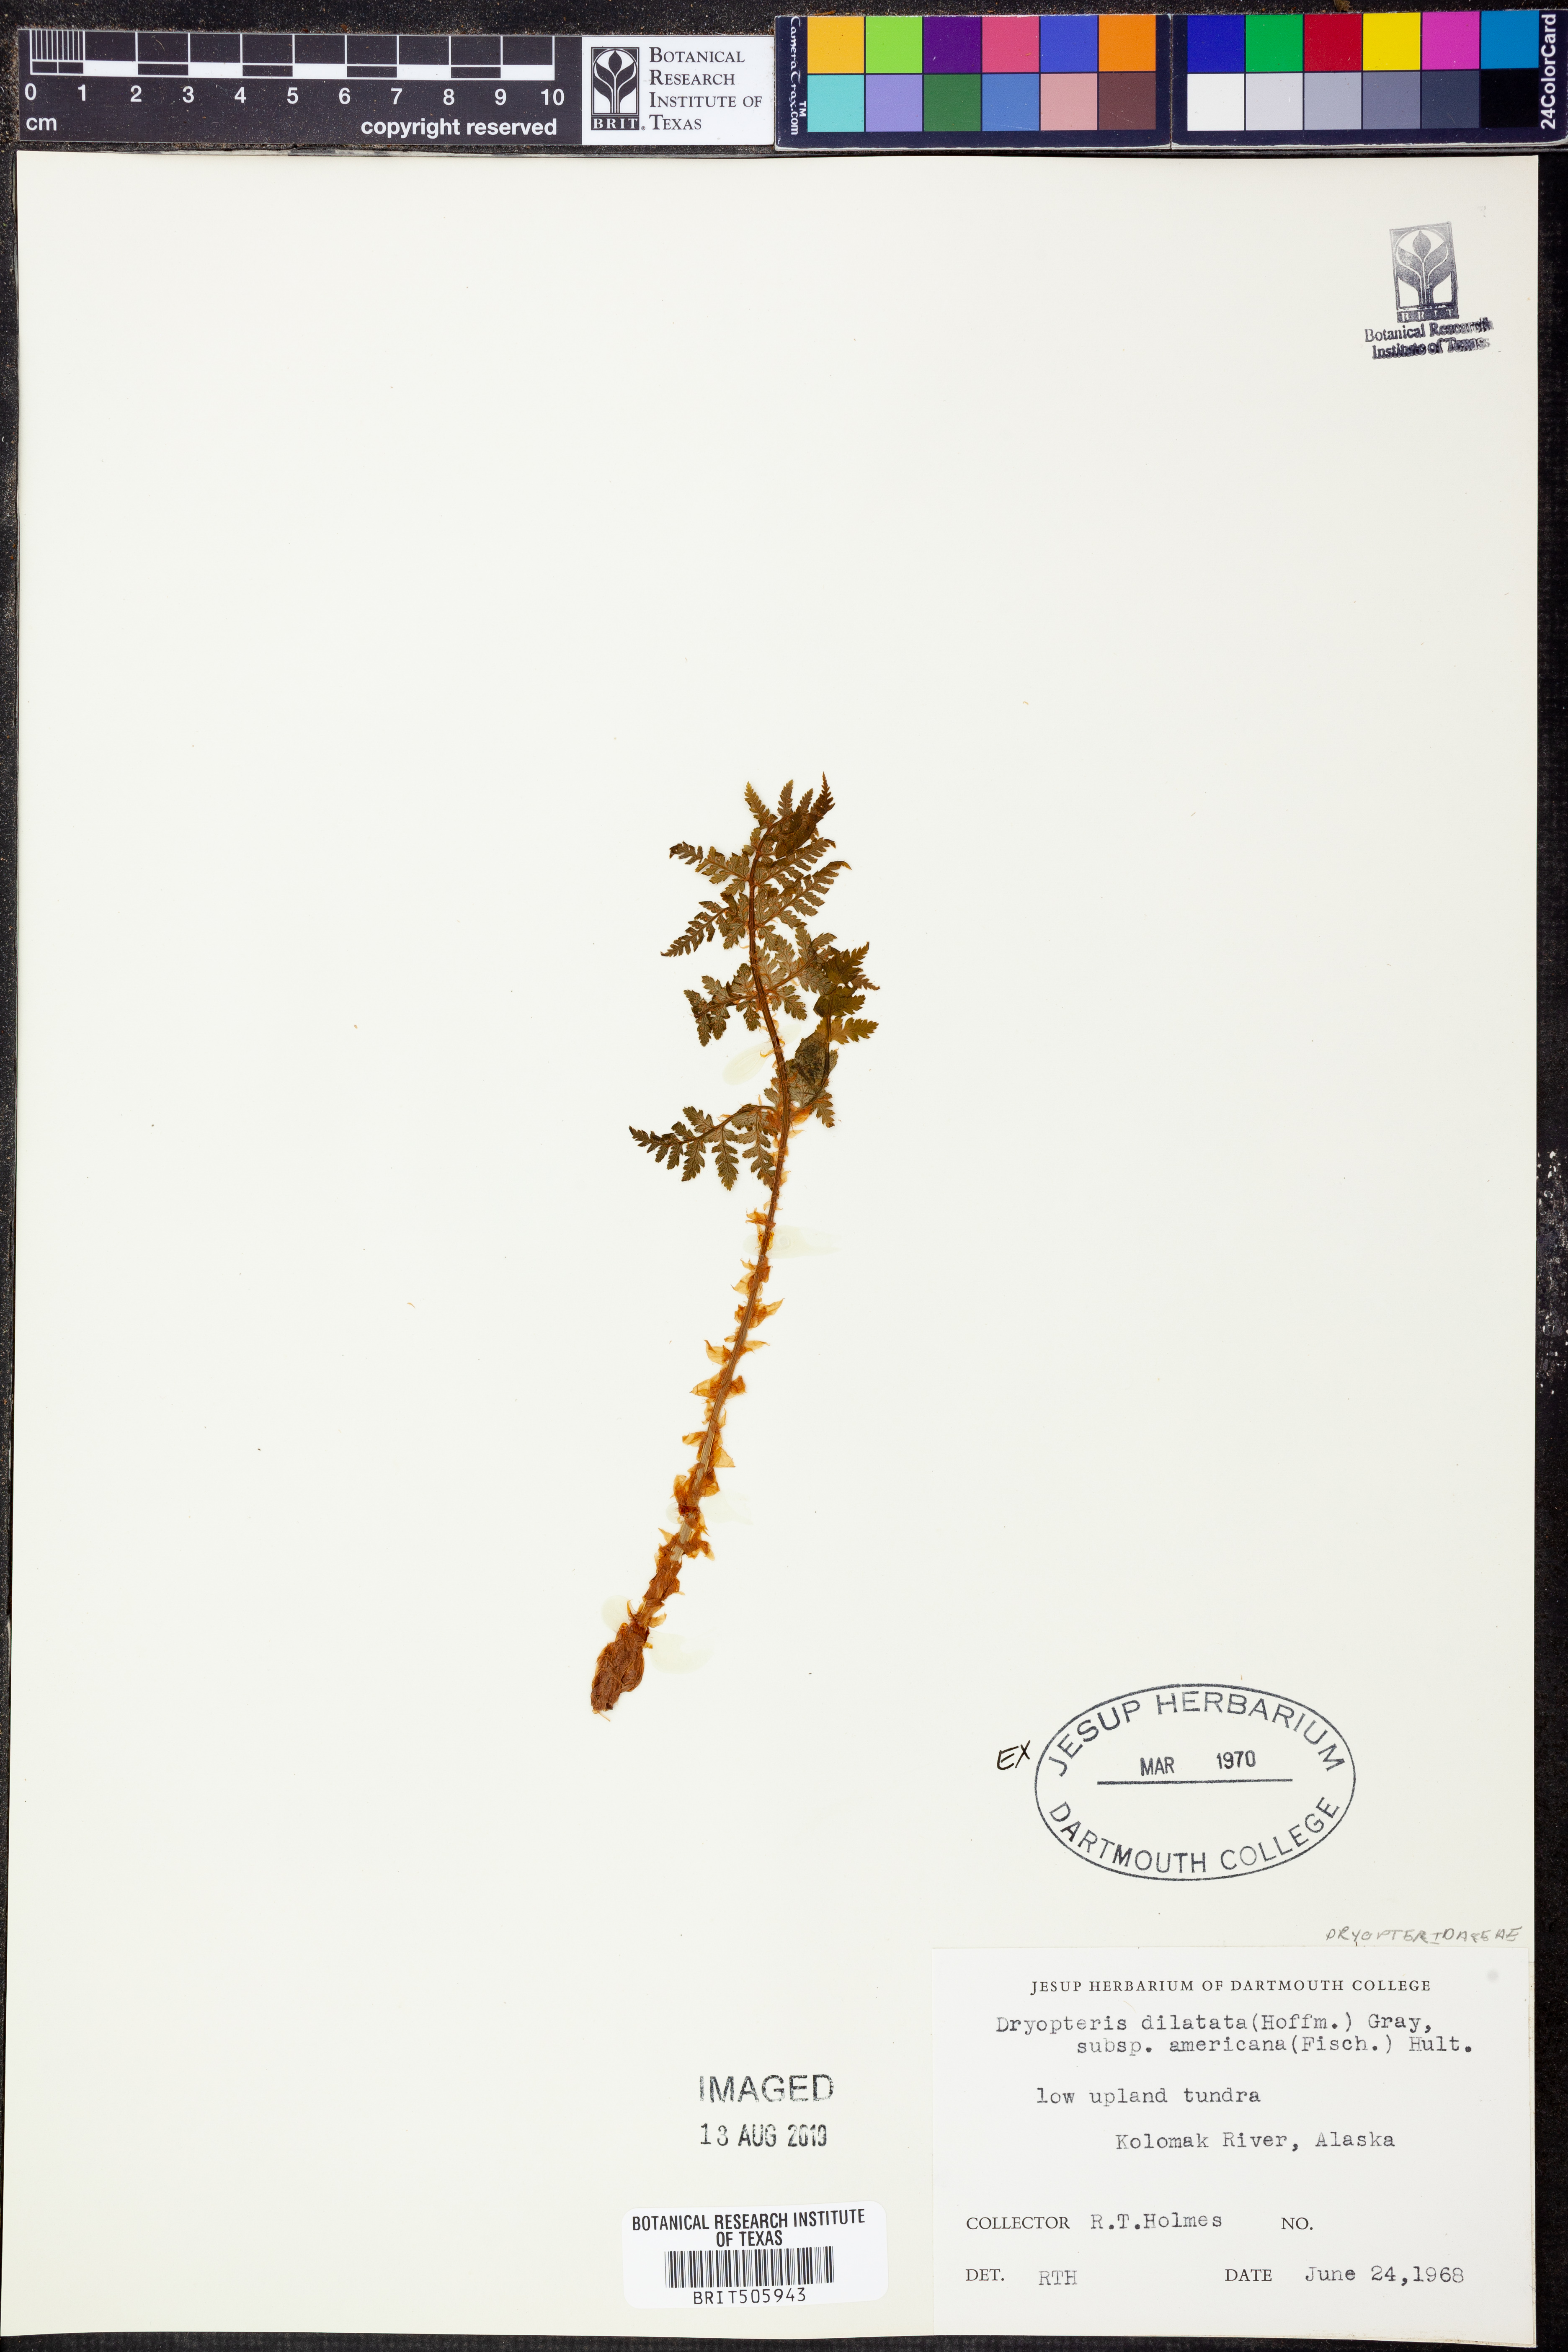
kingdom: Plantae
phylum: Tracheophyta
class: Polypodiopsida
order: Polypodiales
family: Dryopteridaceae
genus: Dryopteris
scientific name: Dryopteris campyloptera
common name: Mountain wood fern
